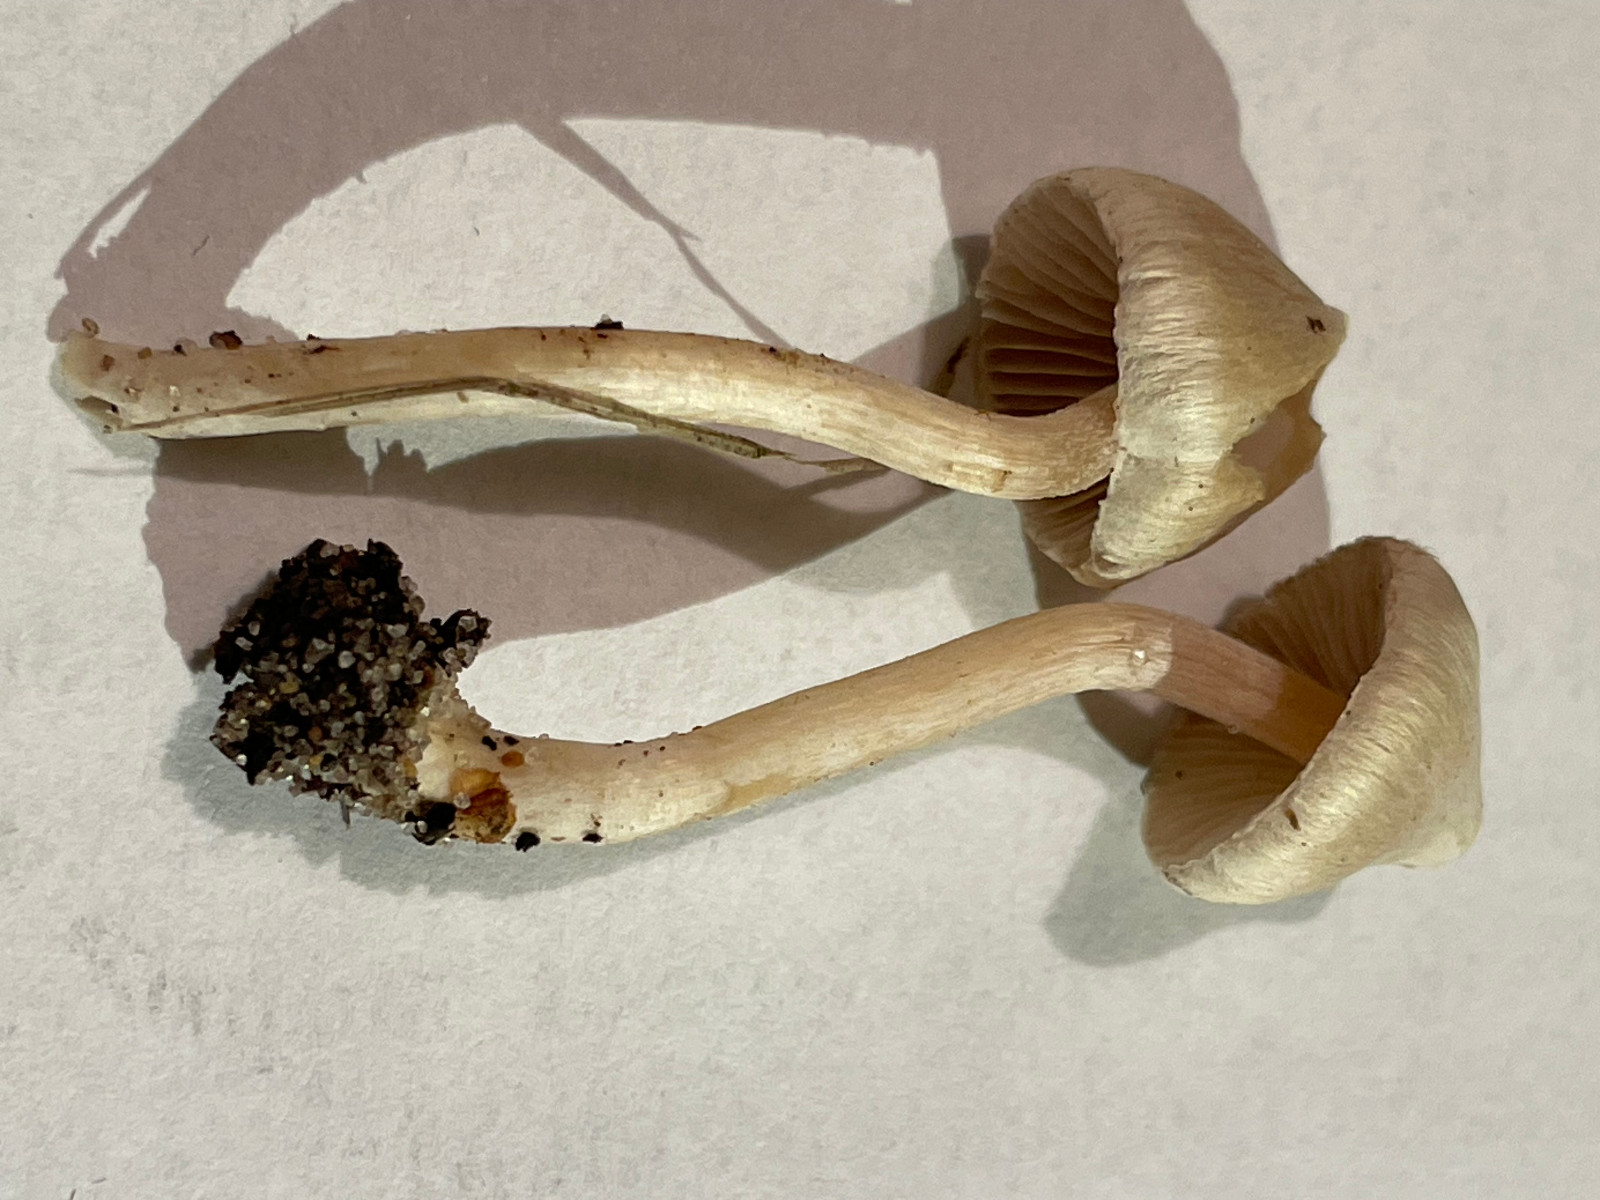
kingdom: Fungi
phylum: Basidiomycota
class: Agaricomycetes
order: Agaricales
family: Inocybaceae
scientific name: Inocybaceae
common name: trævlhatfamilien
